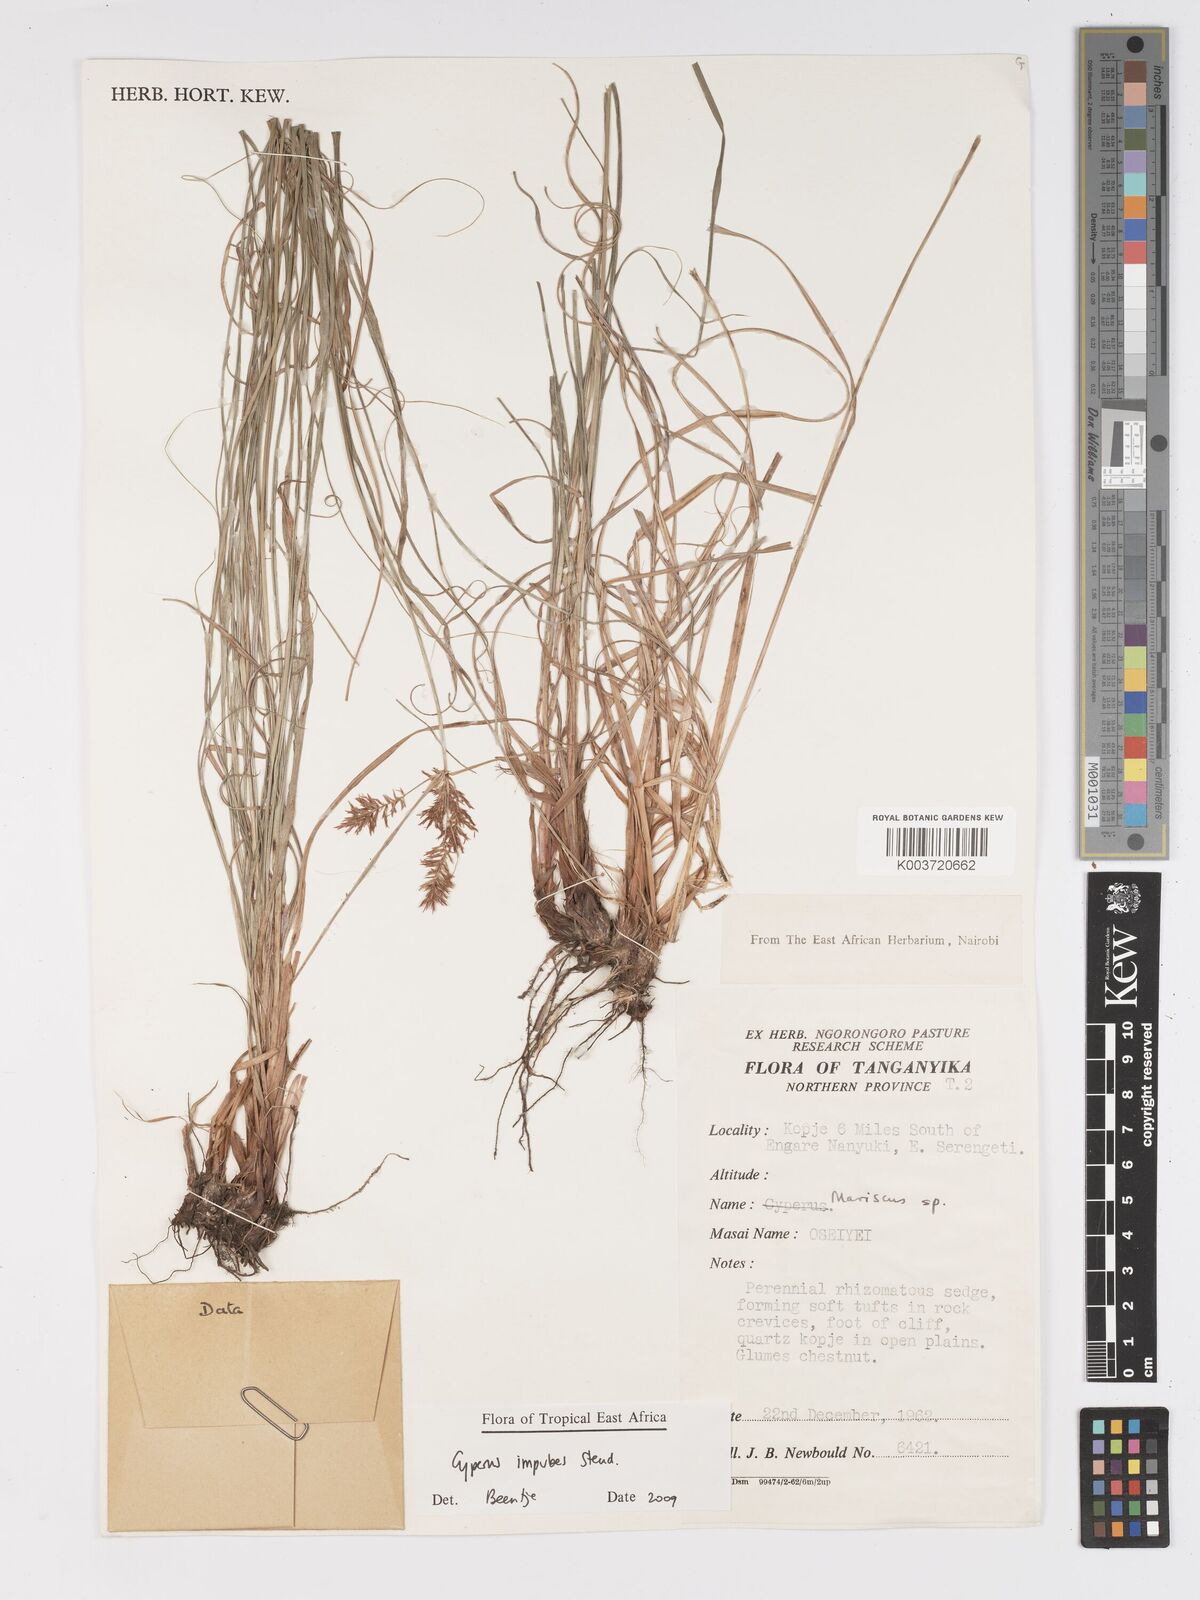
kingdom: Plantae
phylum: Tracheophyta
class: Liliopsida
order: Poales
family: Cyperaceae
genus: Cyperus
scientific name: Cyperus impubes
